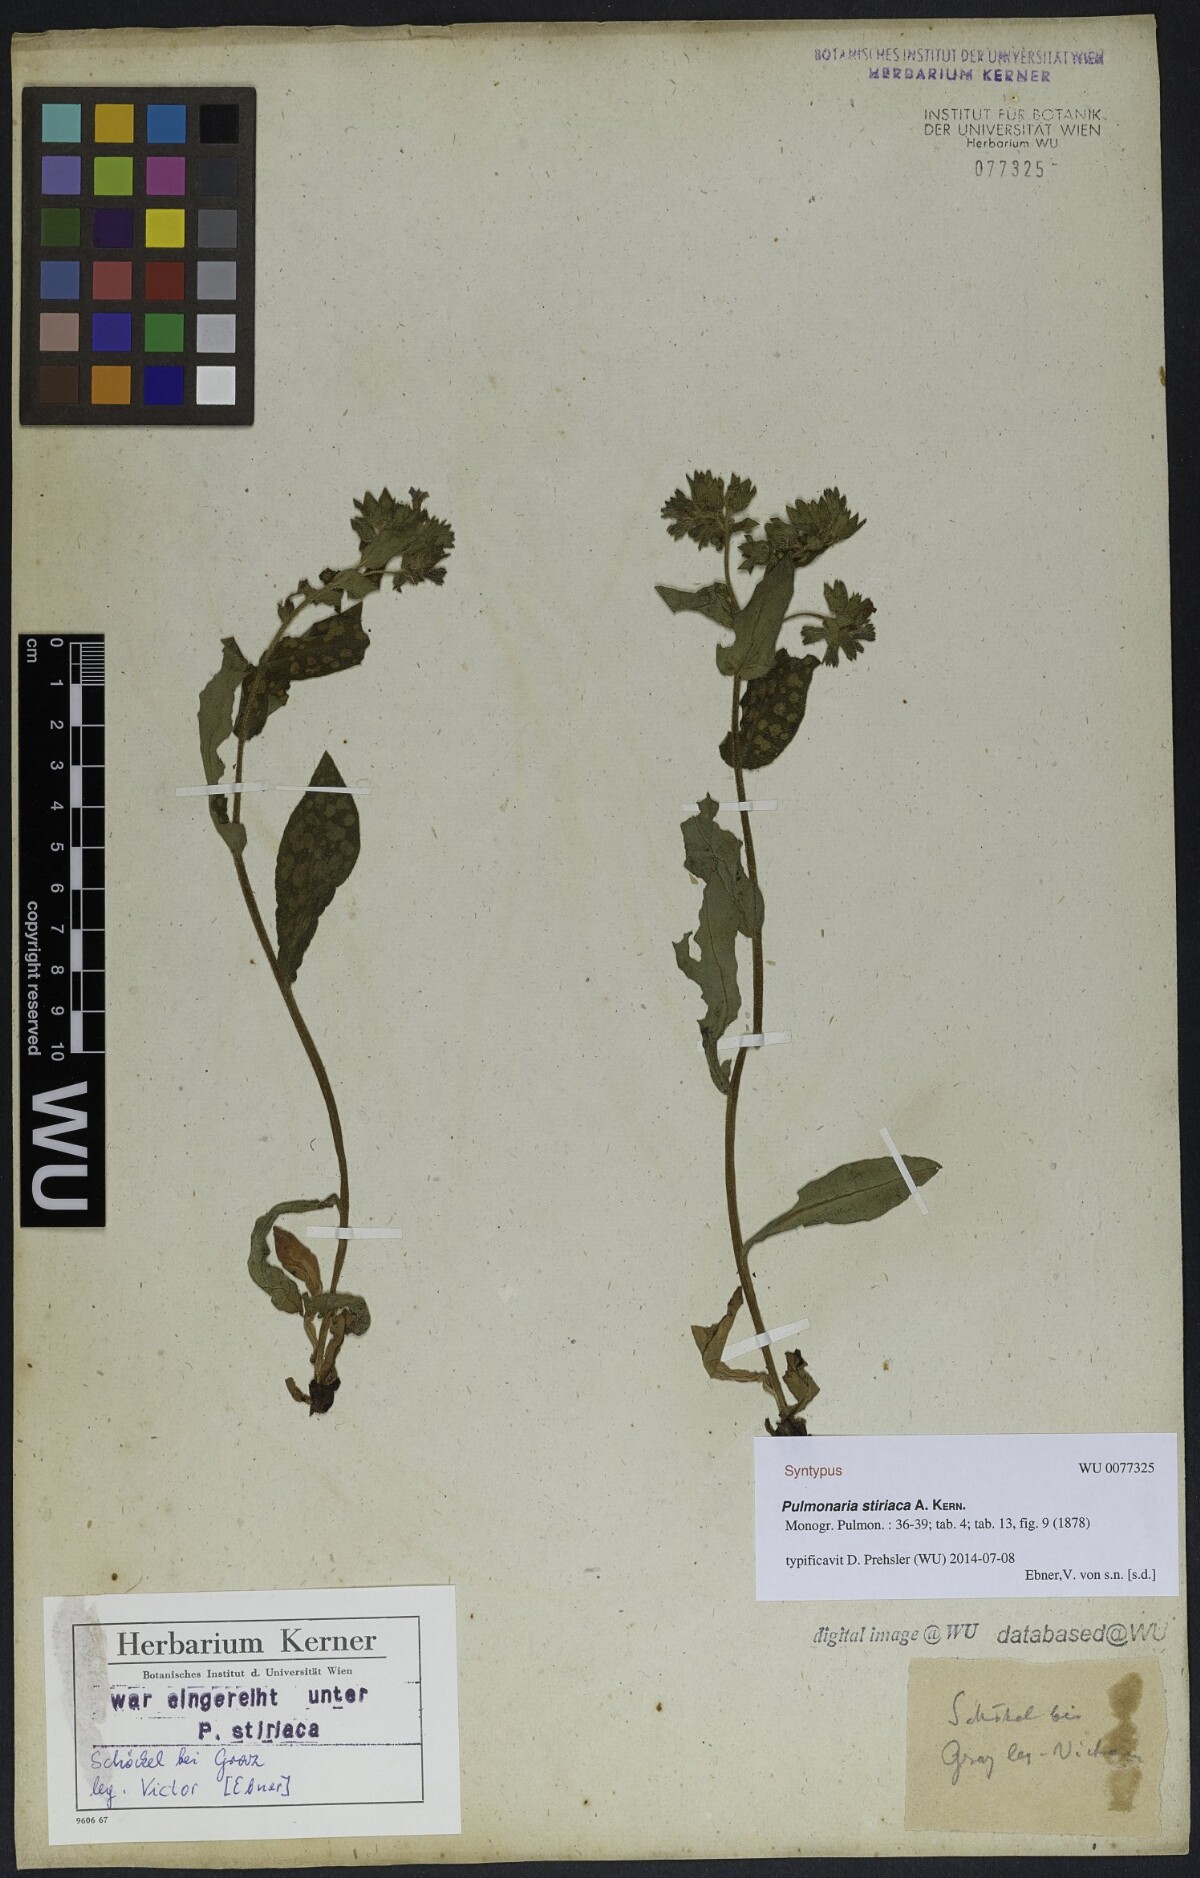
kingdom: Plantae
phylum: Tracheophyta
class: Magnoliopsida
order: Boraginales
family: Boraginaceae
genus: Pulmonaria
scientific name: Pulmonaria stiriaca
